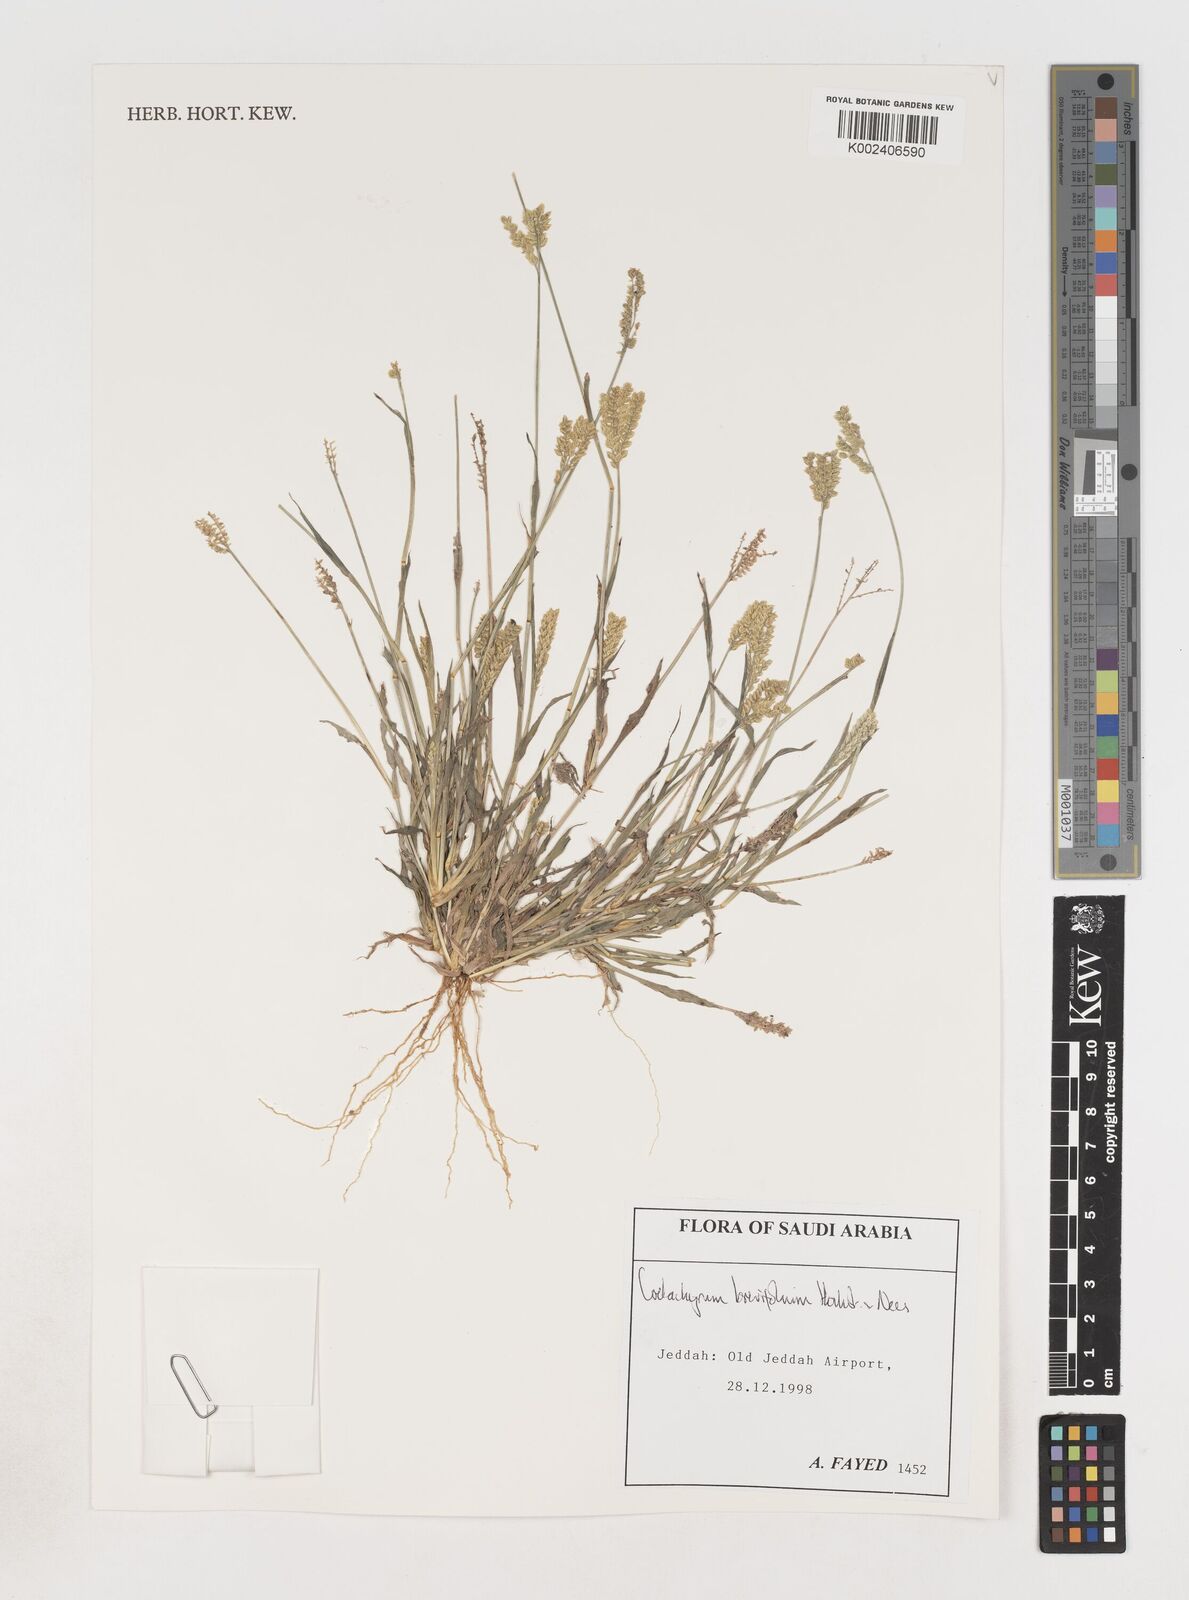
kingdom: Plantae
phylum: Tracheophyta
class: Liliopsida
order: Poales
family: Poaceae
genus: Coelachyrum
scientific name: Coelachyrum brevifolium
